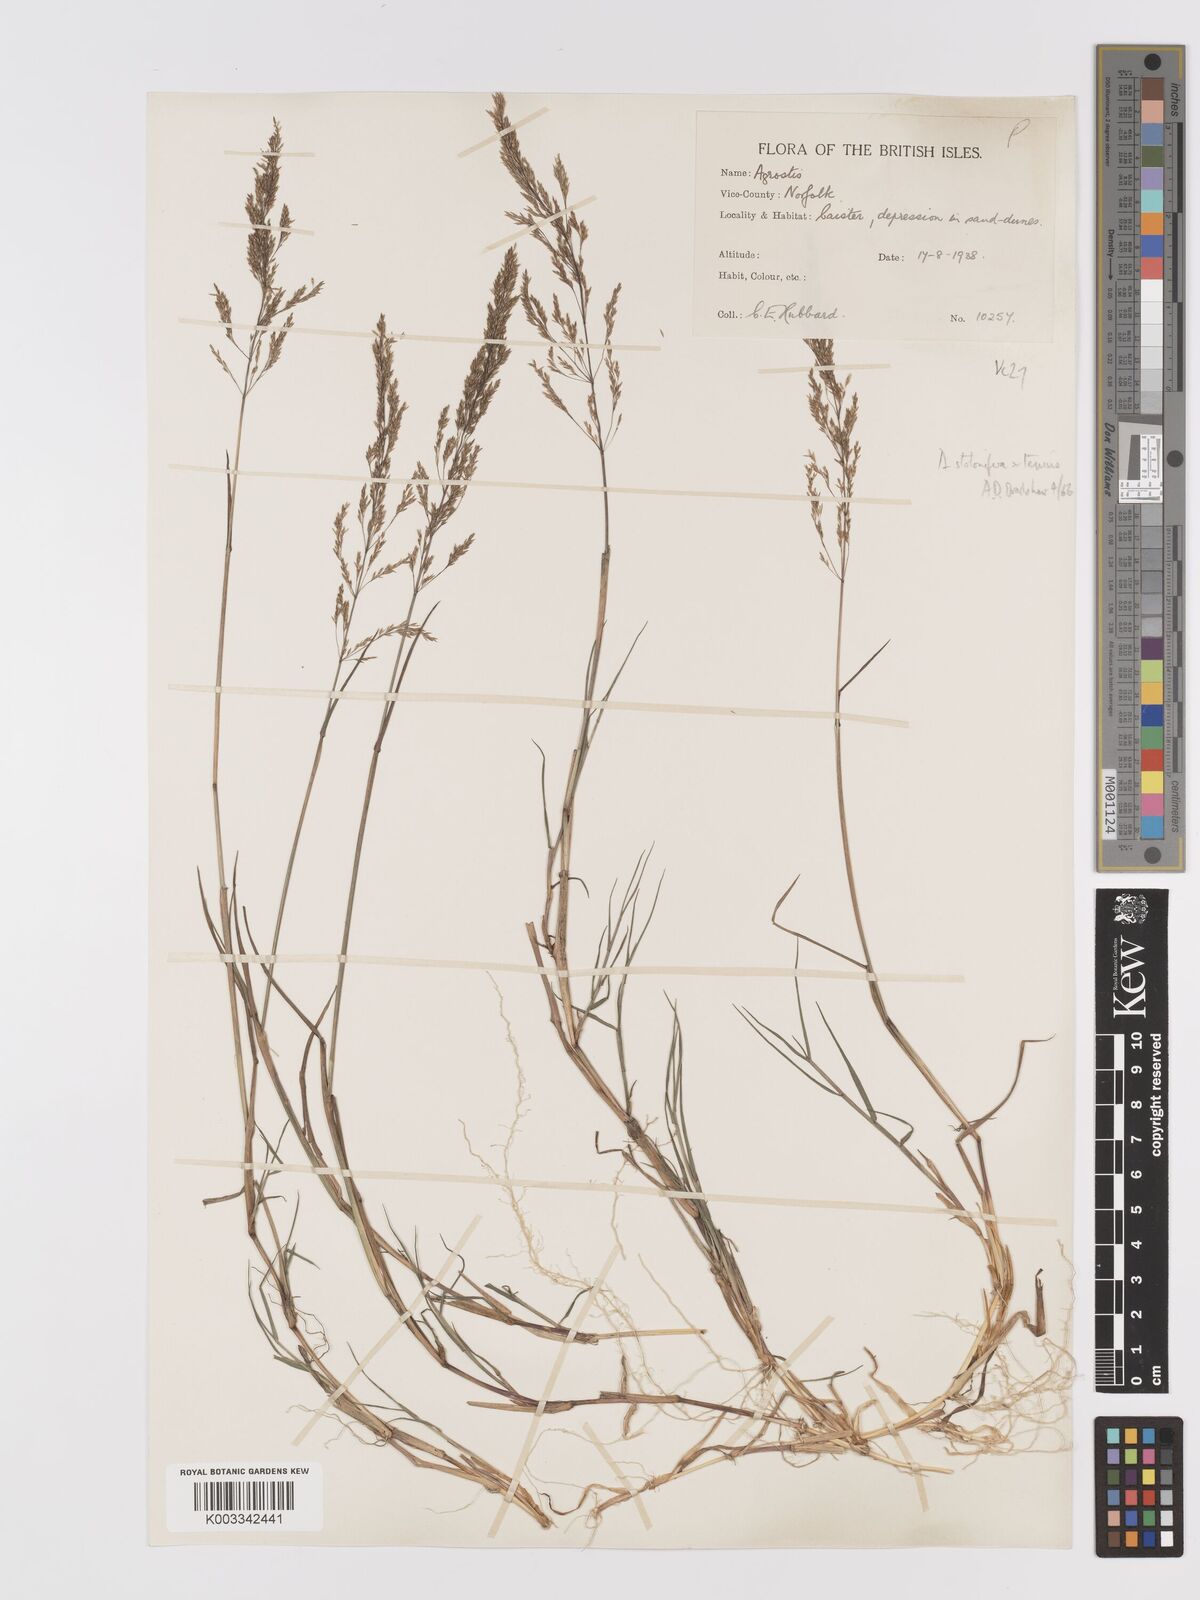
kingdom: Plantae
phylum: Tracheophyta
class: Liliopsida
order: Poales
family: Poaceae
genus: Agrostis
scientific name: Agrostis capillaris
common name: Colonial bentgrass
